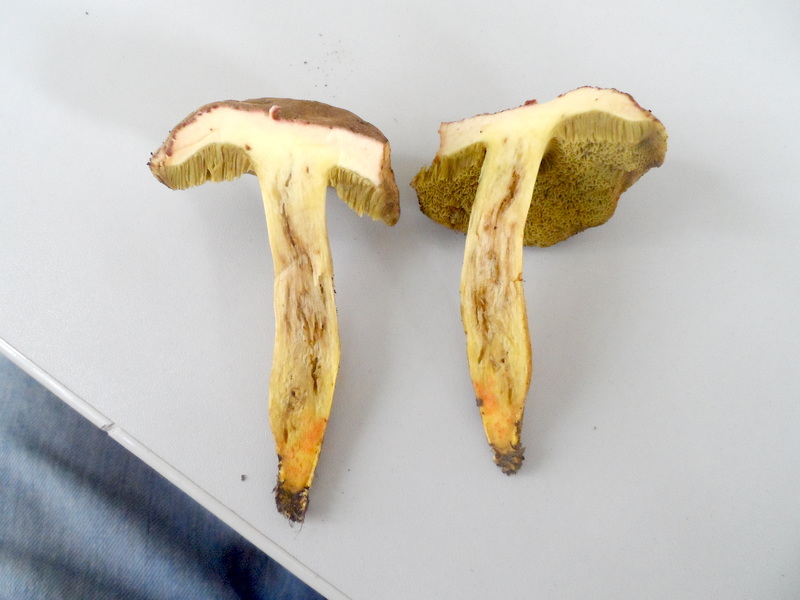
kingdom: Fungi
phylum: Basidiomycota
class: Agaricomycetes
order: Boletales
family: Boletaceae
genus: Xerocomellus
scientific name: Xerocomellus chrysenteron
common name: Red-cracking bolete
